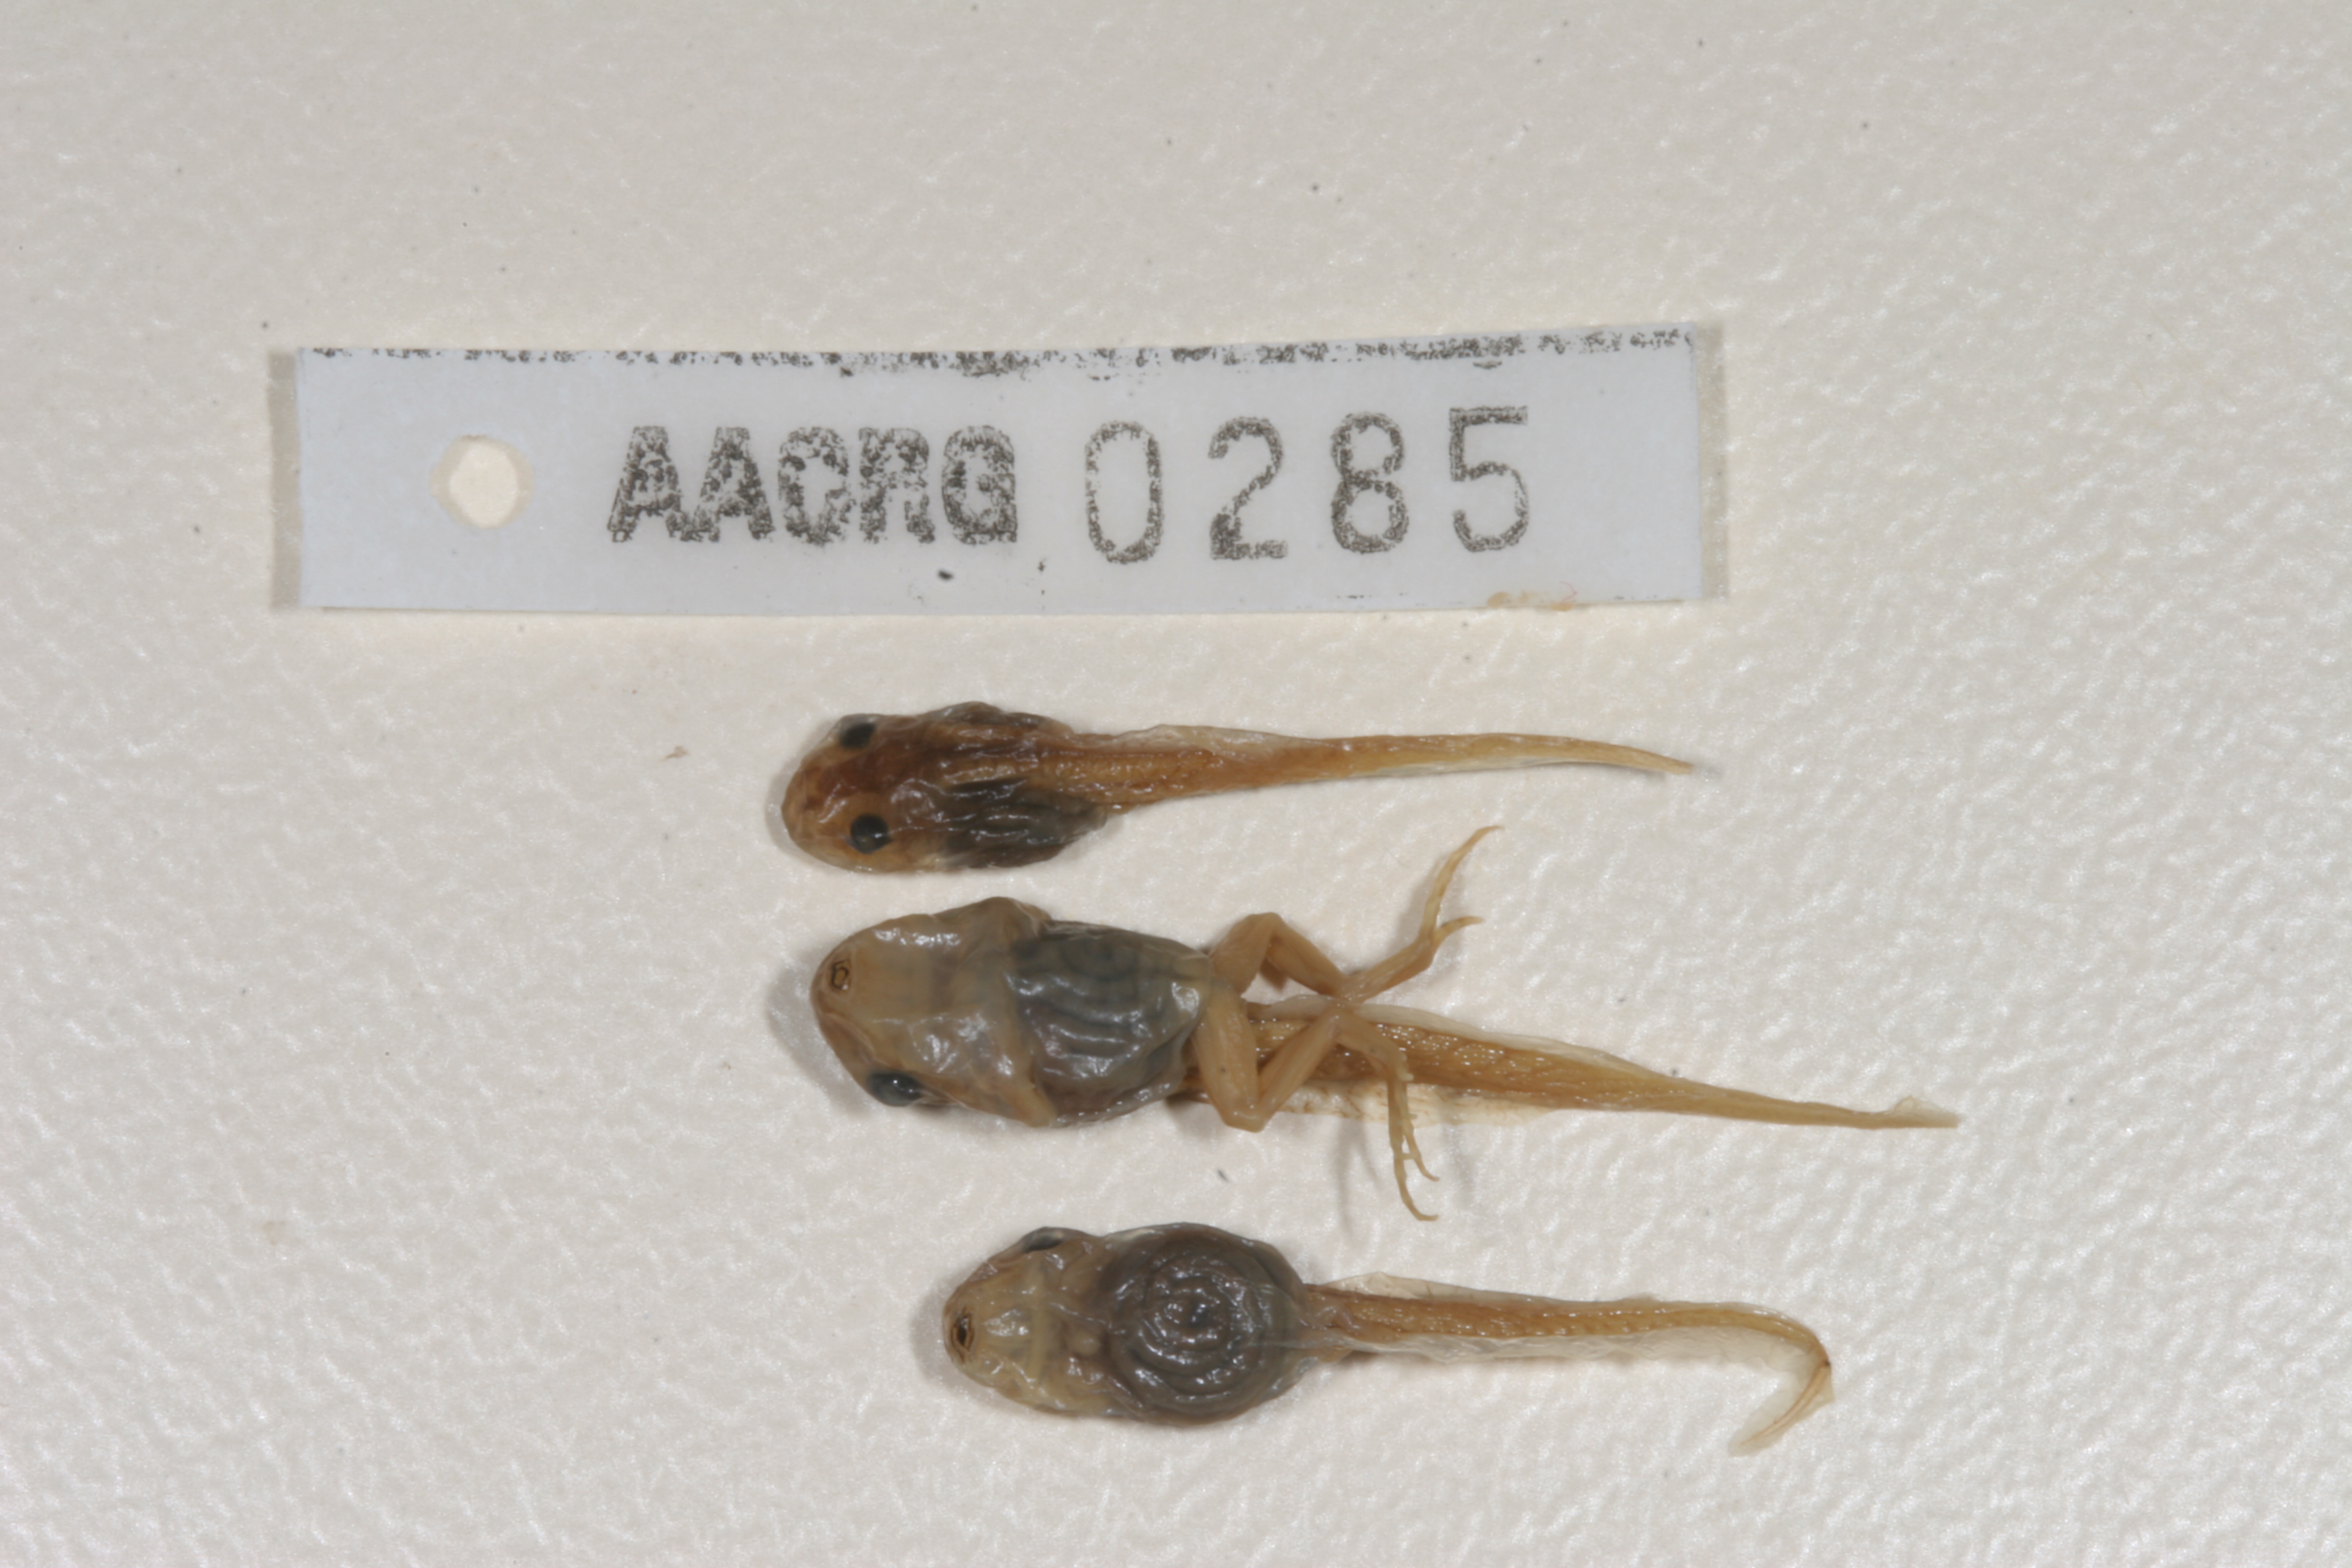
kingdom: Animalia
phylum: Chordata
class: Amphibia
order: Anura
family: Pyxicephalidae
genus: Cacosternum
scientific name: Cacosternum boettgeri
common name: Boettger's frog
